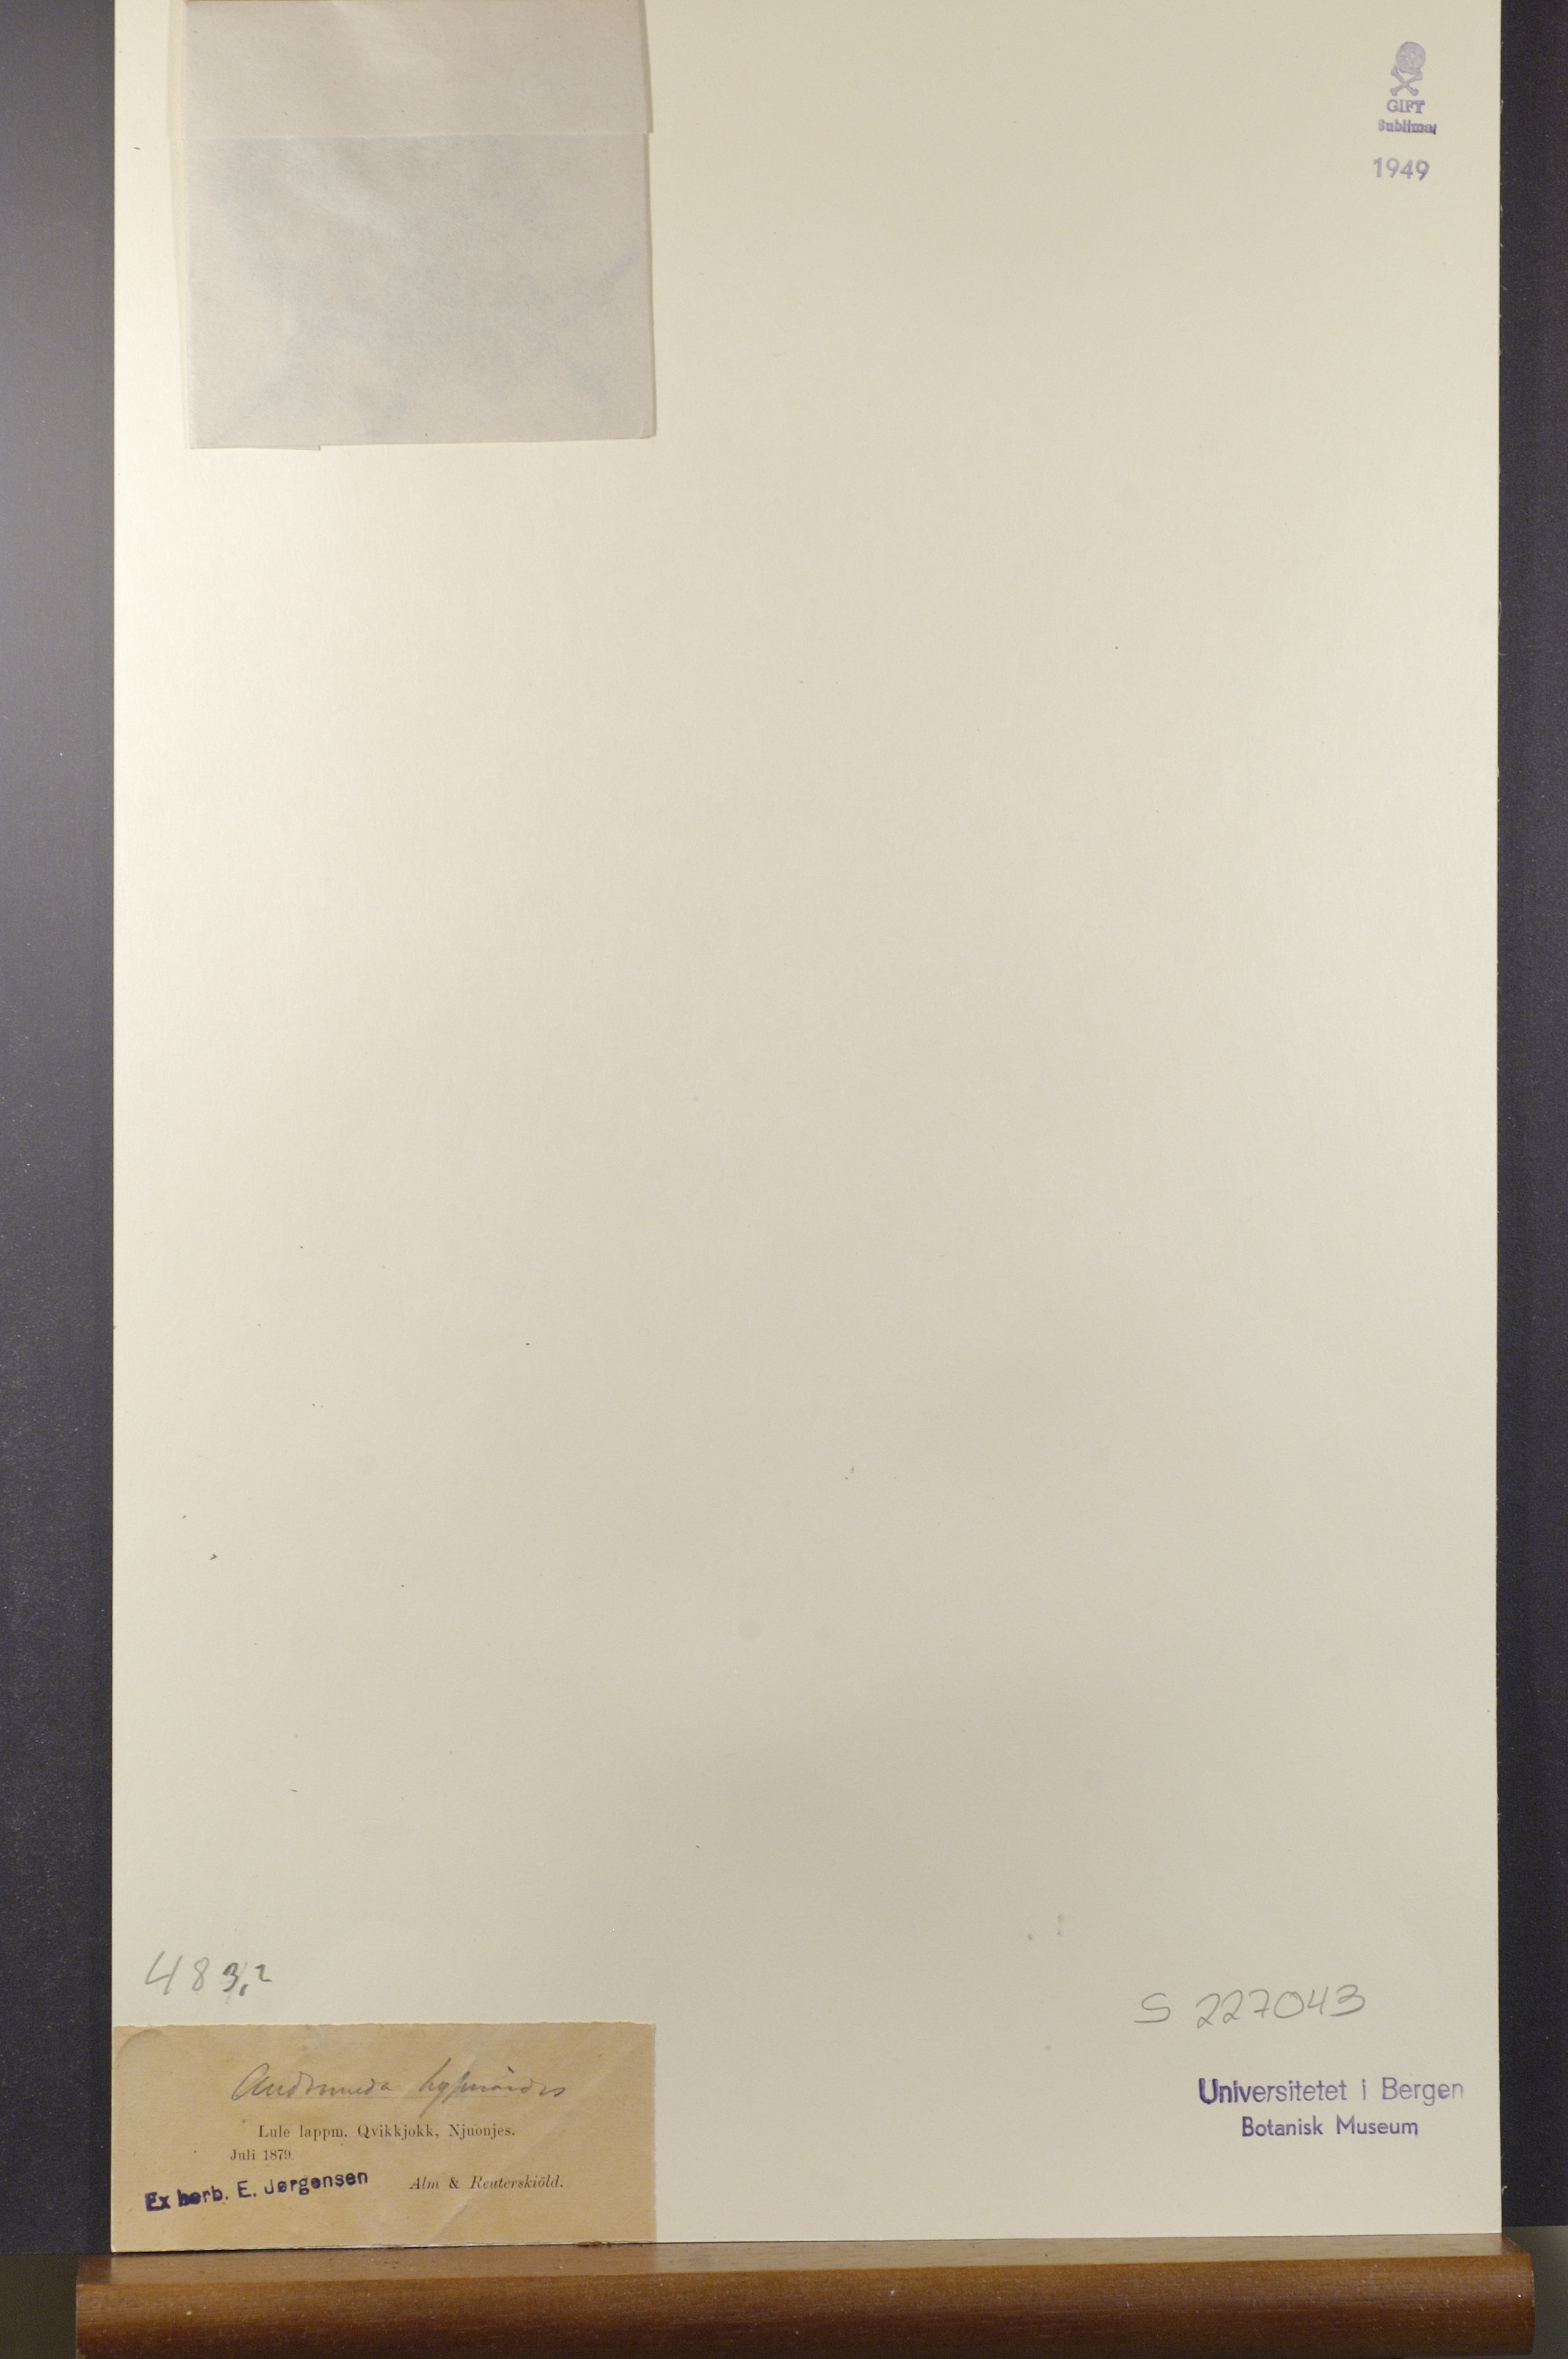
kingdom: Plantae
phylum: Tracheophyta
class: Magnoliopsida
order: Ericales
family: Ericaceae
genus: Harrimanella
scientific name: Harrimanella hypnoides
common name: Moss bell heather
